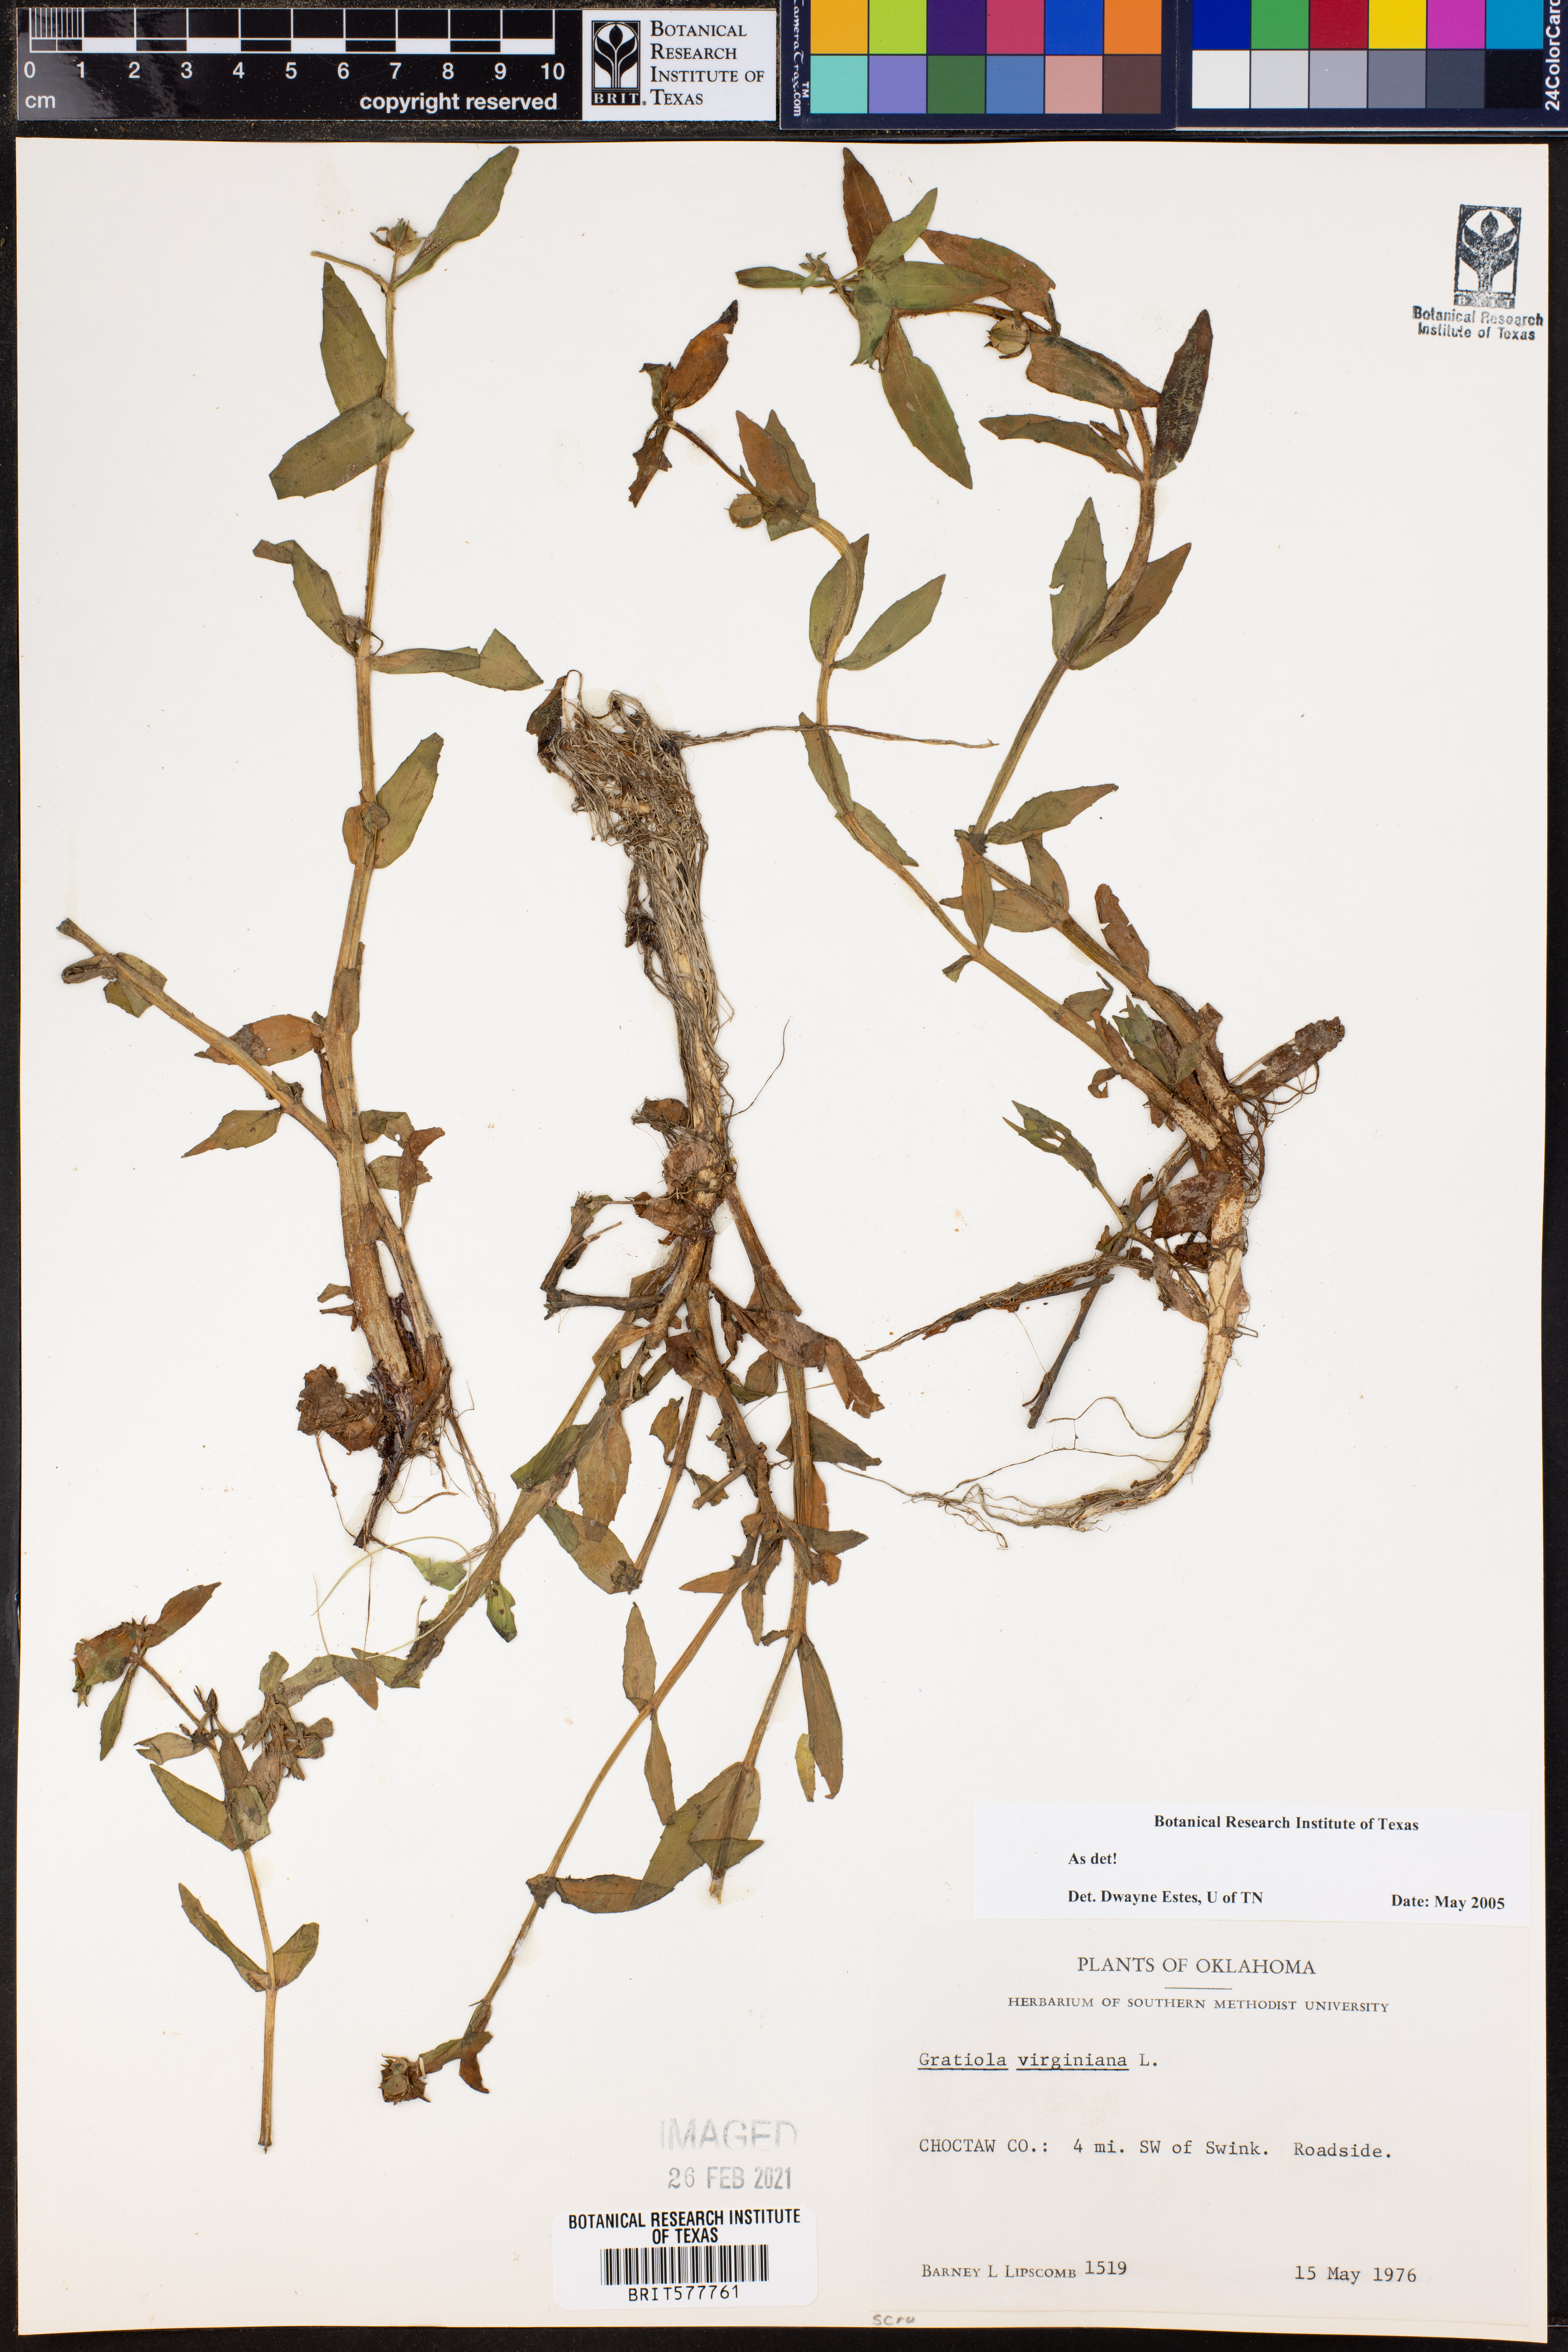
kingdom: Plantae
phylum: Tracheophyta
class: Magnoliopsida
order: Lamiales
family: Plantaginaceae
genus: Gratiola
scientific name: Gratiola virginiana
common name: Roundfruit hedgehyssop
